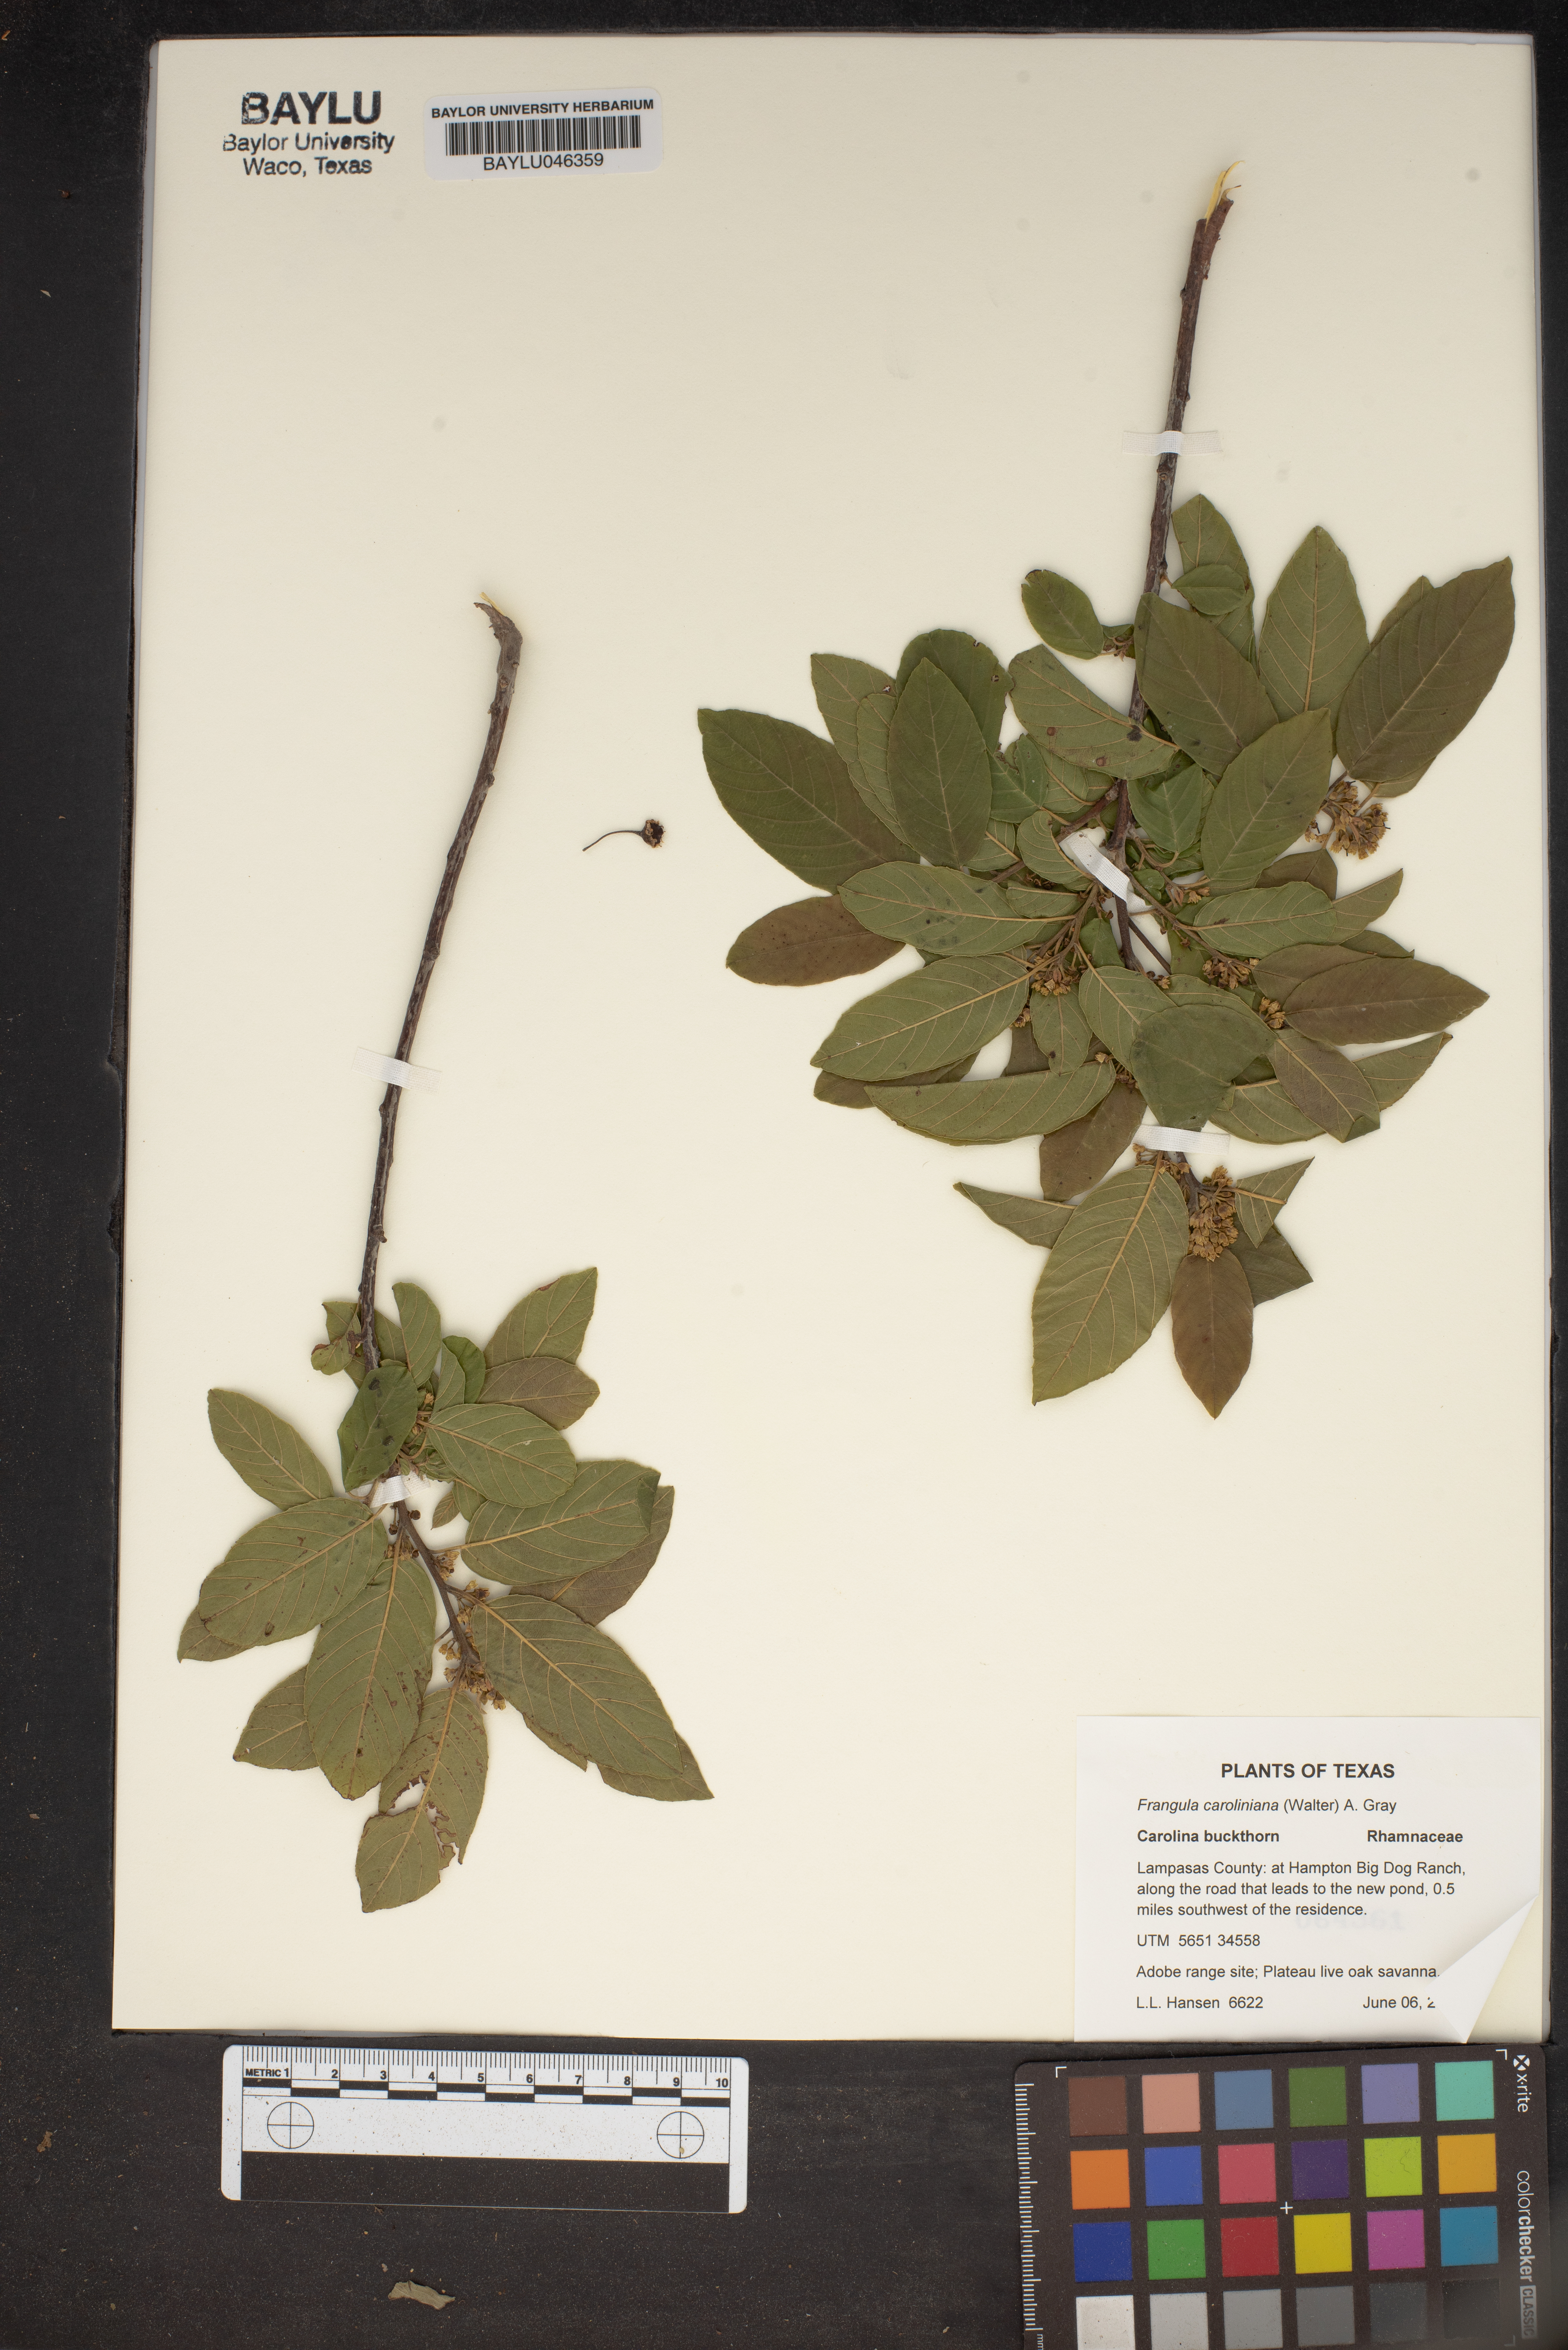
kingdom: Plantae
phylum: Tracheophyta
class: Magnoliopsida
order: Rosales
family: Rhamnaceae
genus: Frangula
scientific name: Frangula caroliniana
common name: Carolina buckthorn
